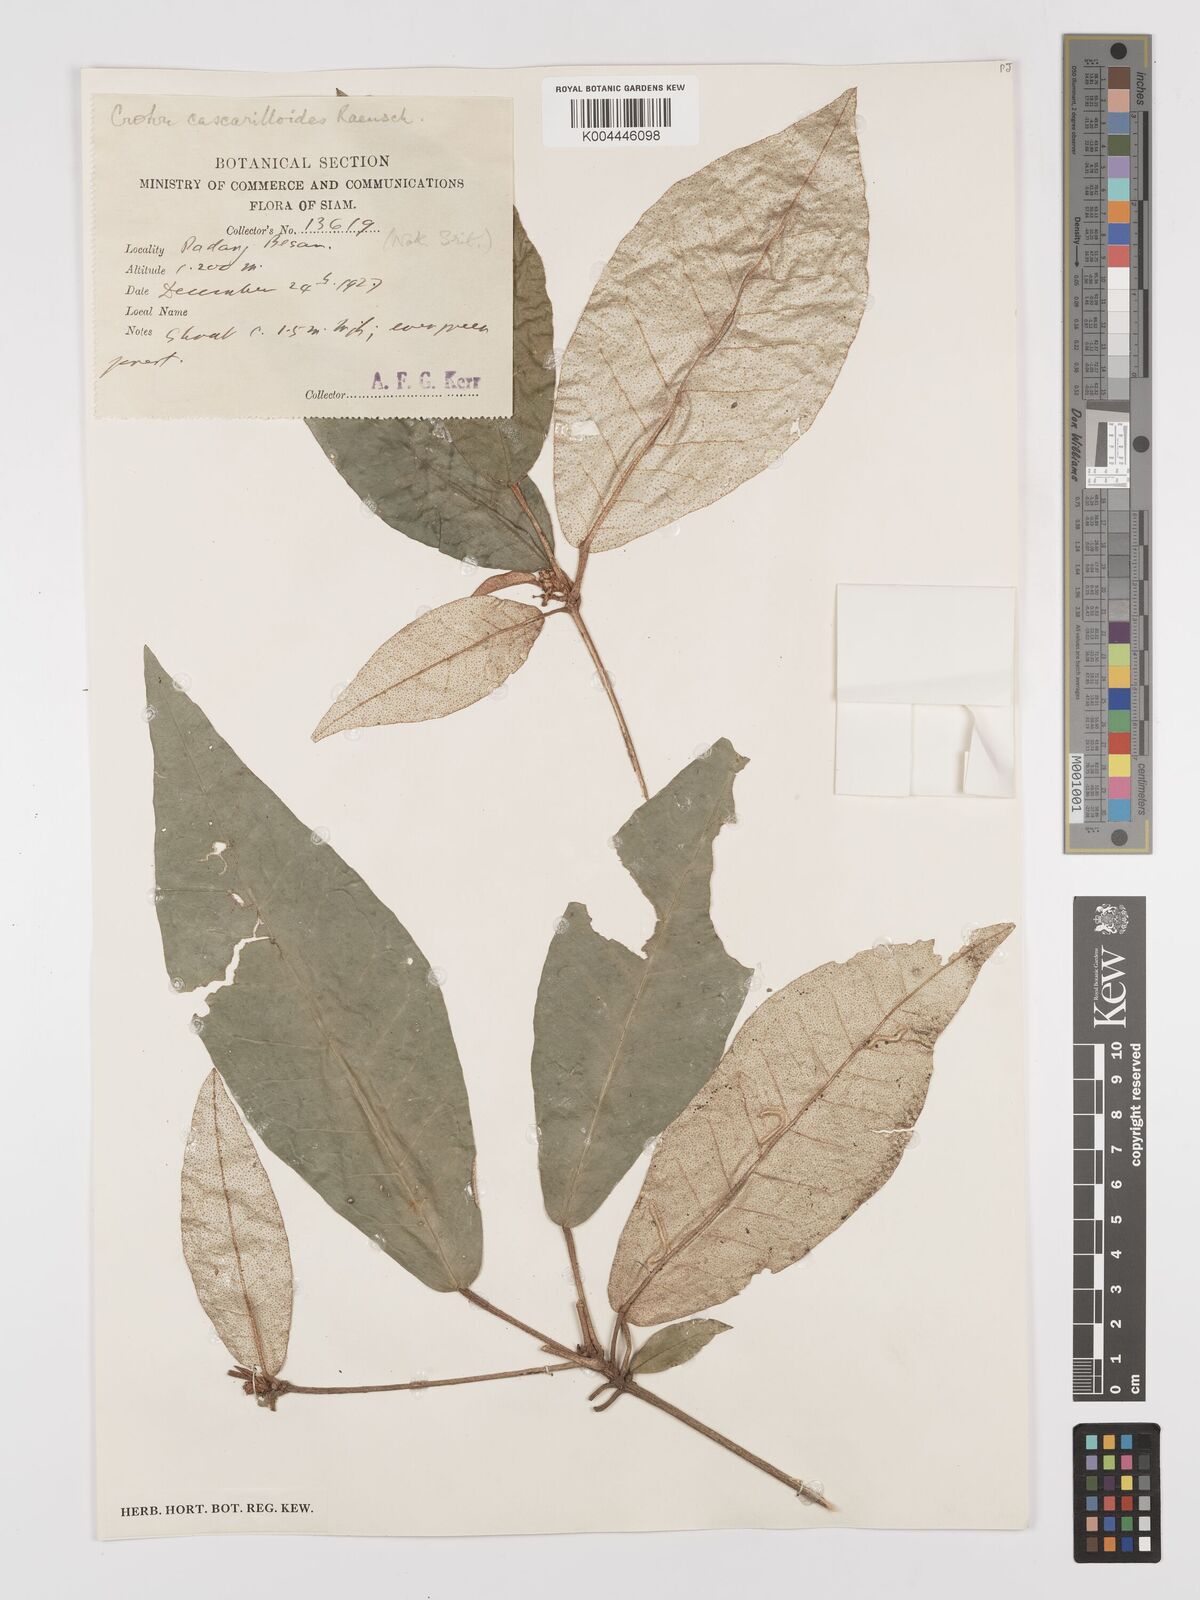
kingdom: Plantae
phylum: Tracheophyta
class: Magnoliopsida
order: Malpighiales
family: Euphorbiaceae
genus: Croton
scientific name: Croton cascarilloides
